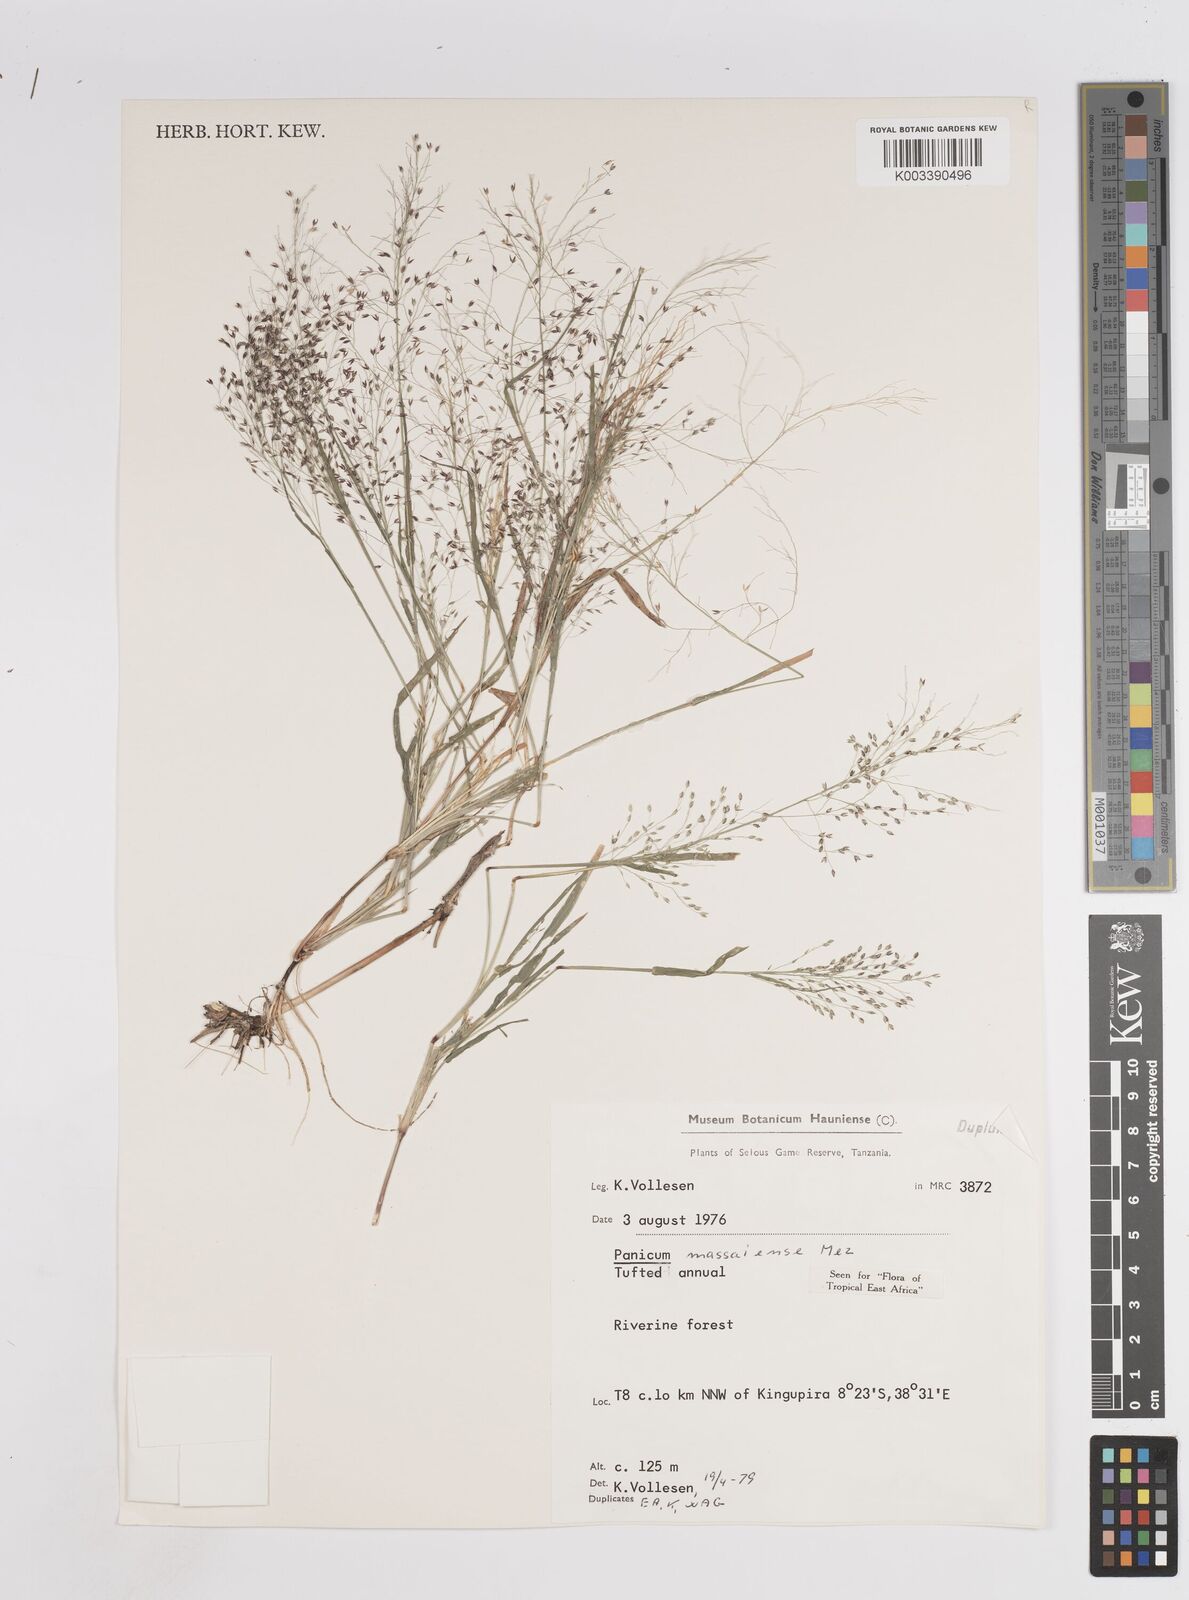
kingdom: Plantae
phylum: Tracheophyta
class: Liliopsida
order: Poales
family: Poaceae
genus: Panicum
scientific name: Panicum massaiense
